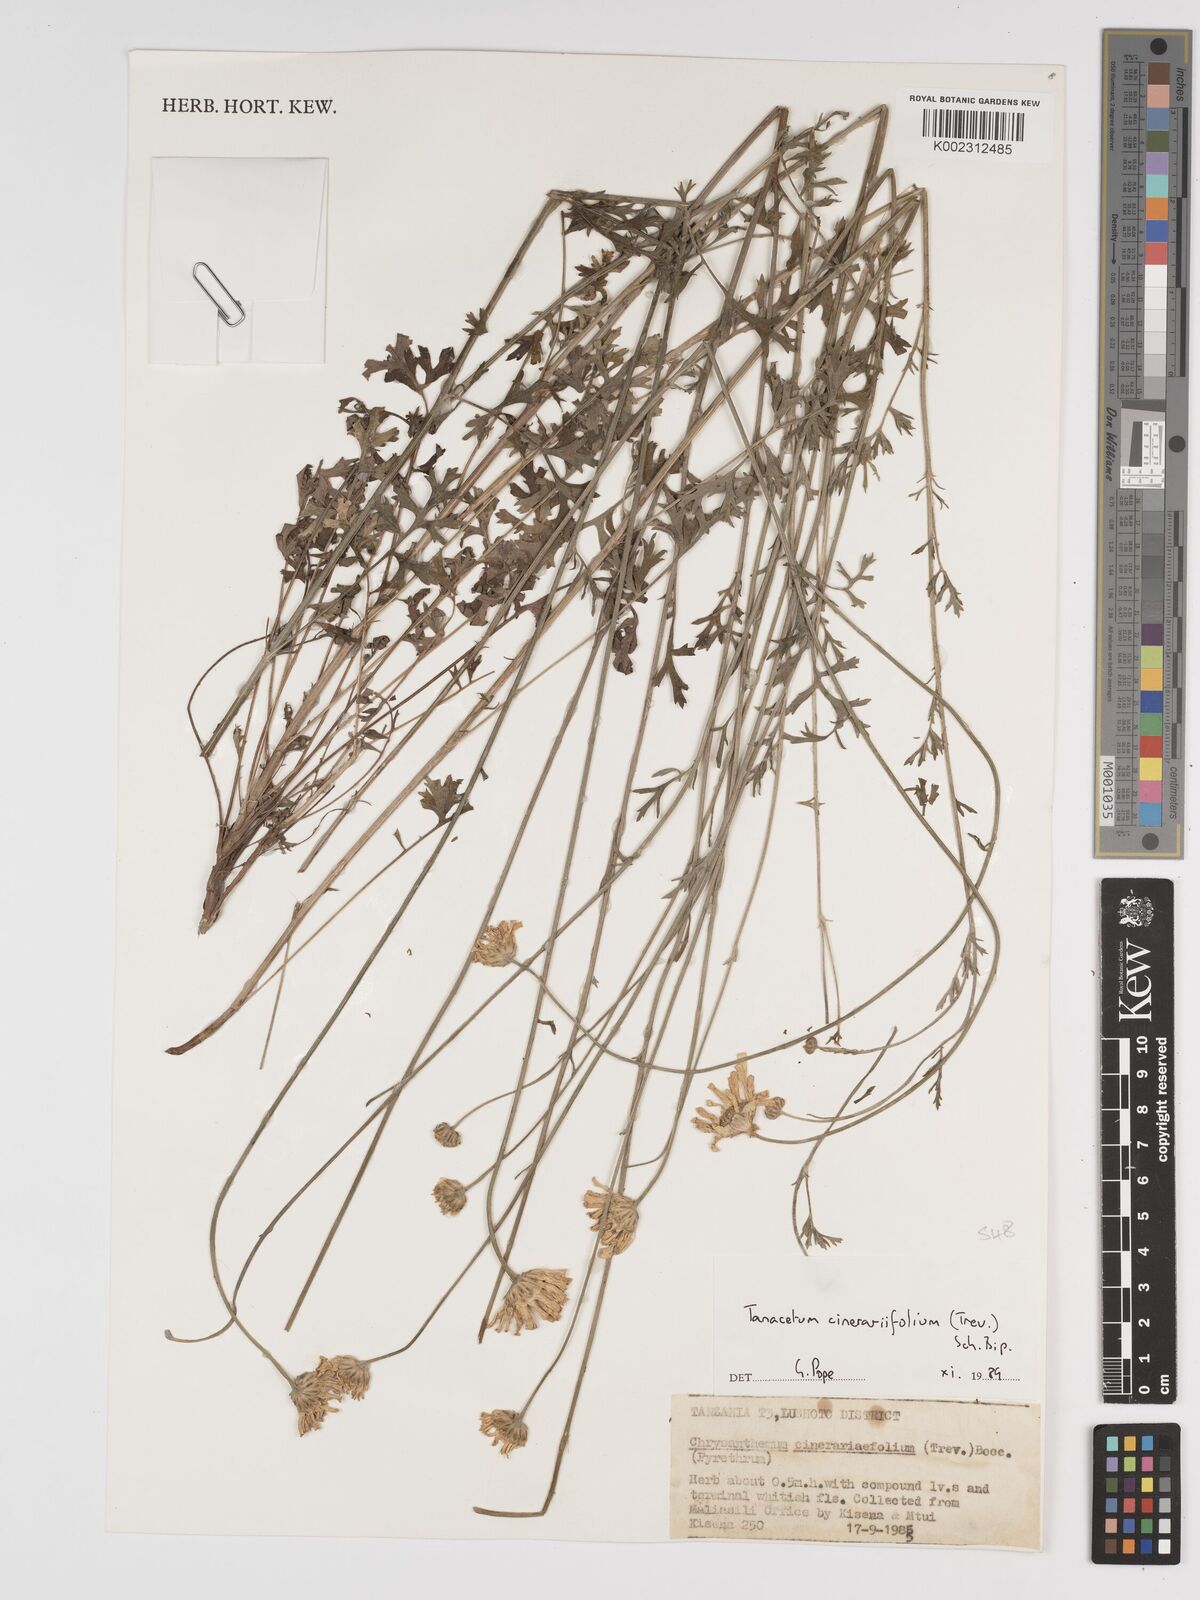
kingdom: Plantae
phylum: Tracheophyta
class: Magnoliopsida
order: Asterales
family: Asteraceae
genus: Tanacetum
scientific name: Tanacetum cinerariifolium
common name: Dalmatian pyrethrum
